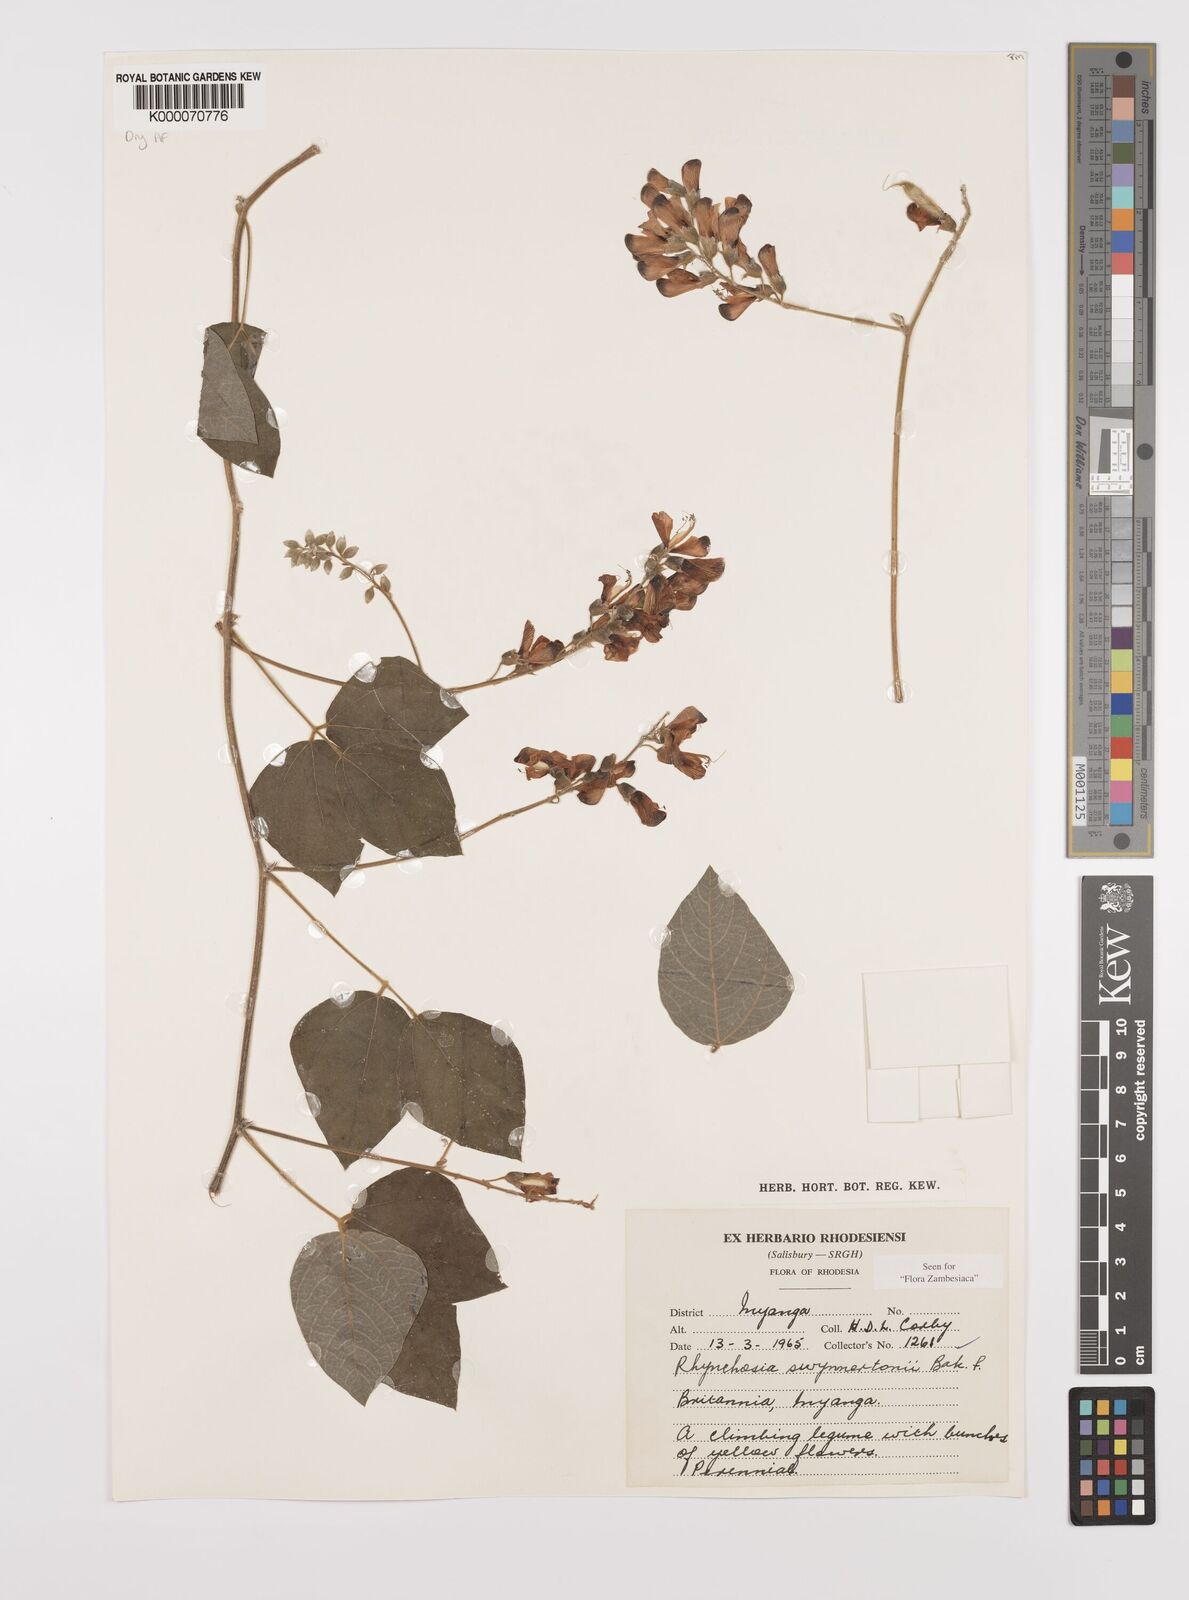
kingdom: Plantae
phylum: Tracheophyta
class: Magnoliopsida
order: Fabales
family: Fabaceae
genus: Rhynchosia
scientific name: Rhynchosia swynnertonii
